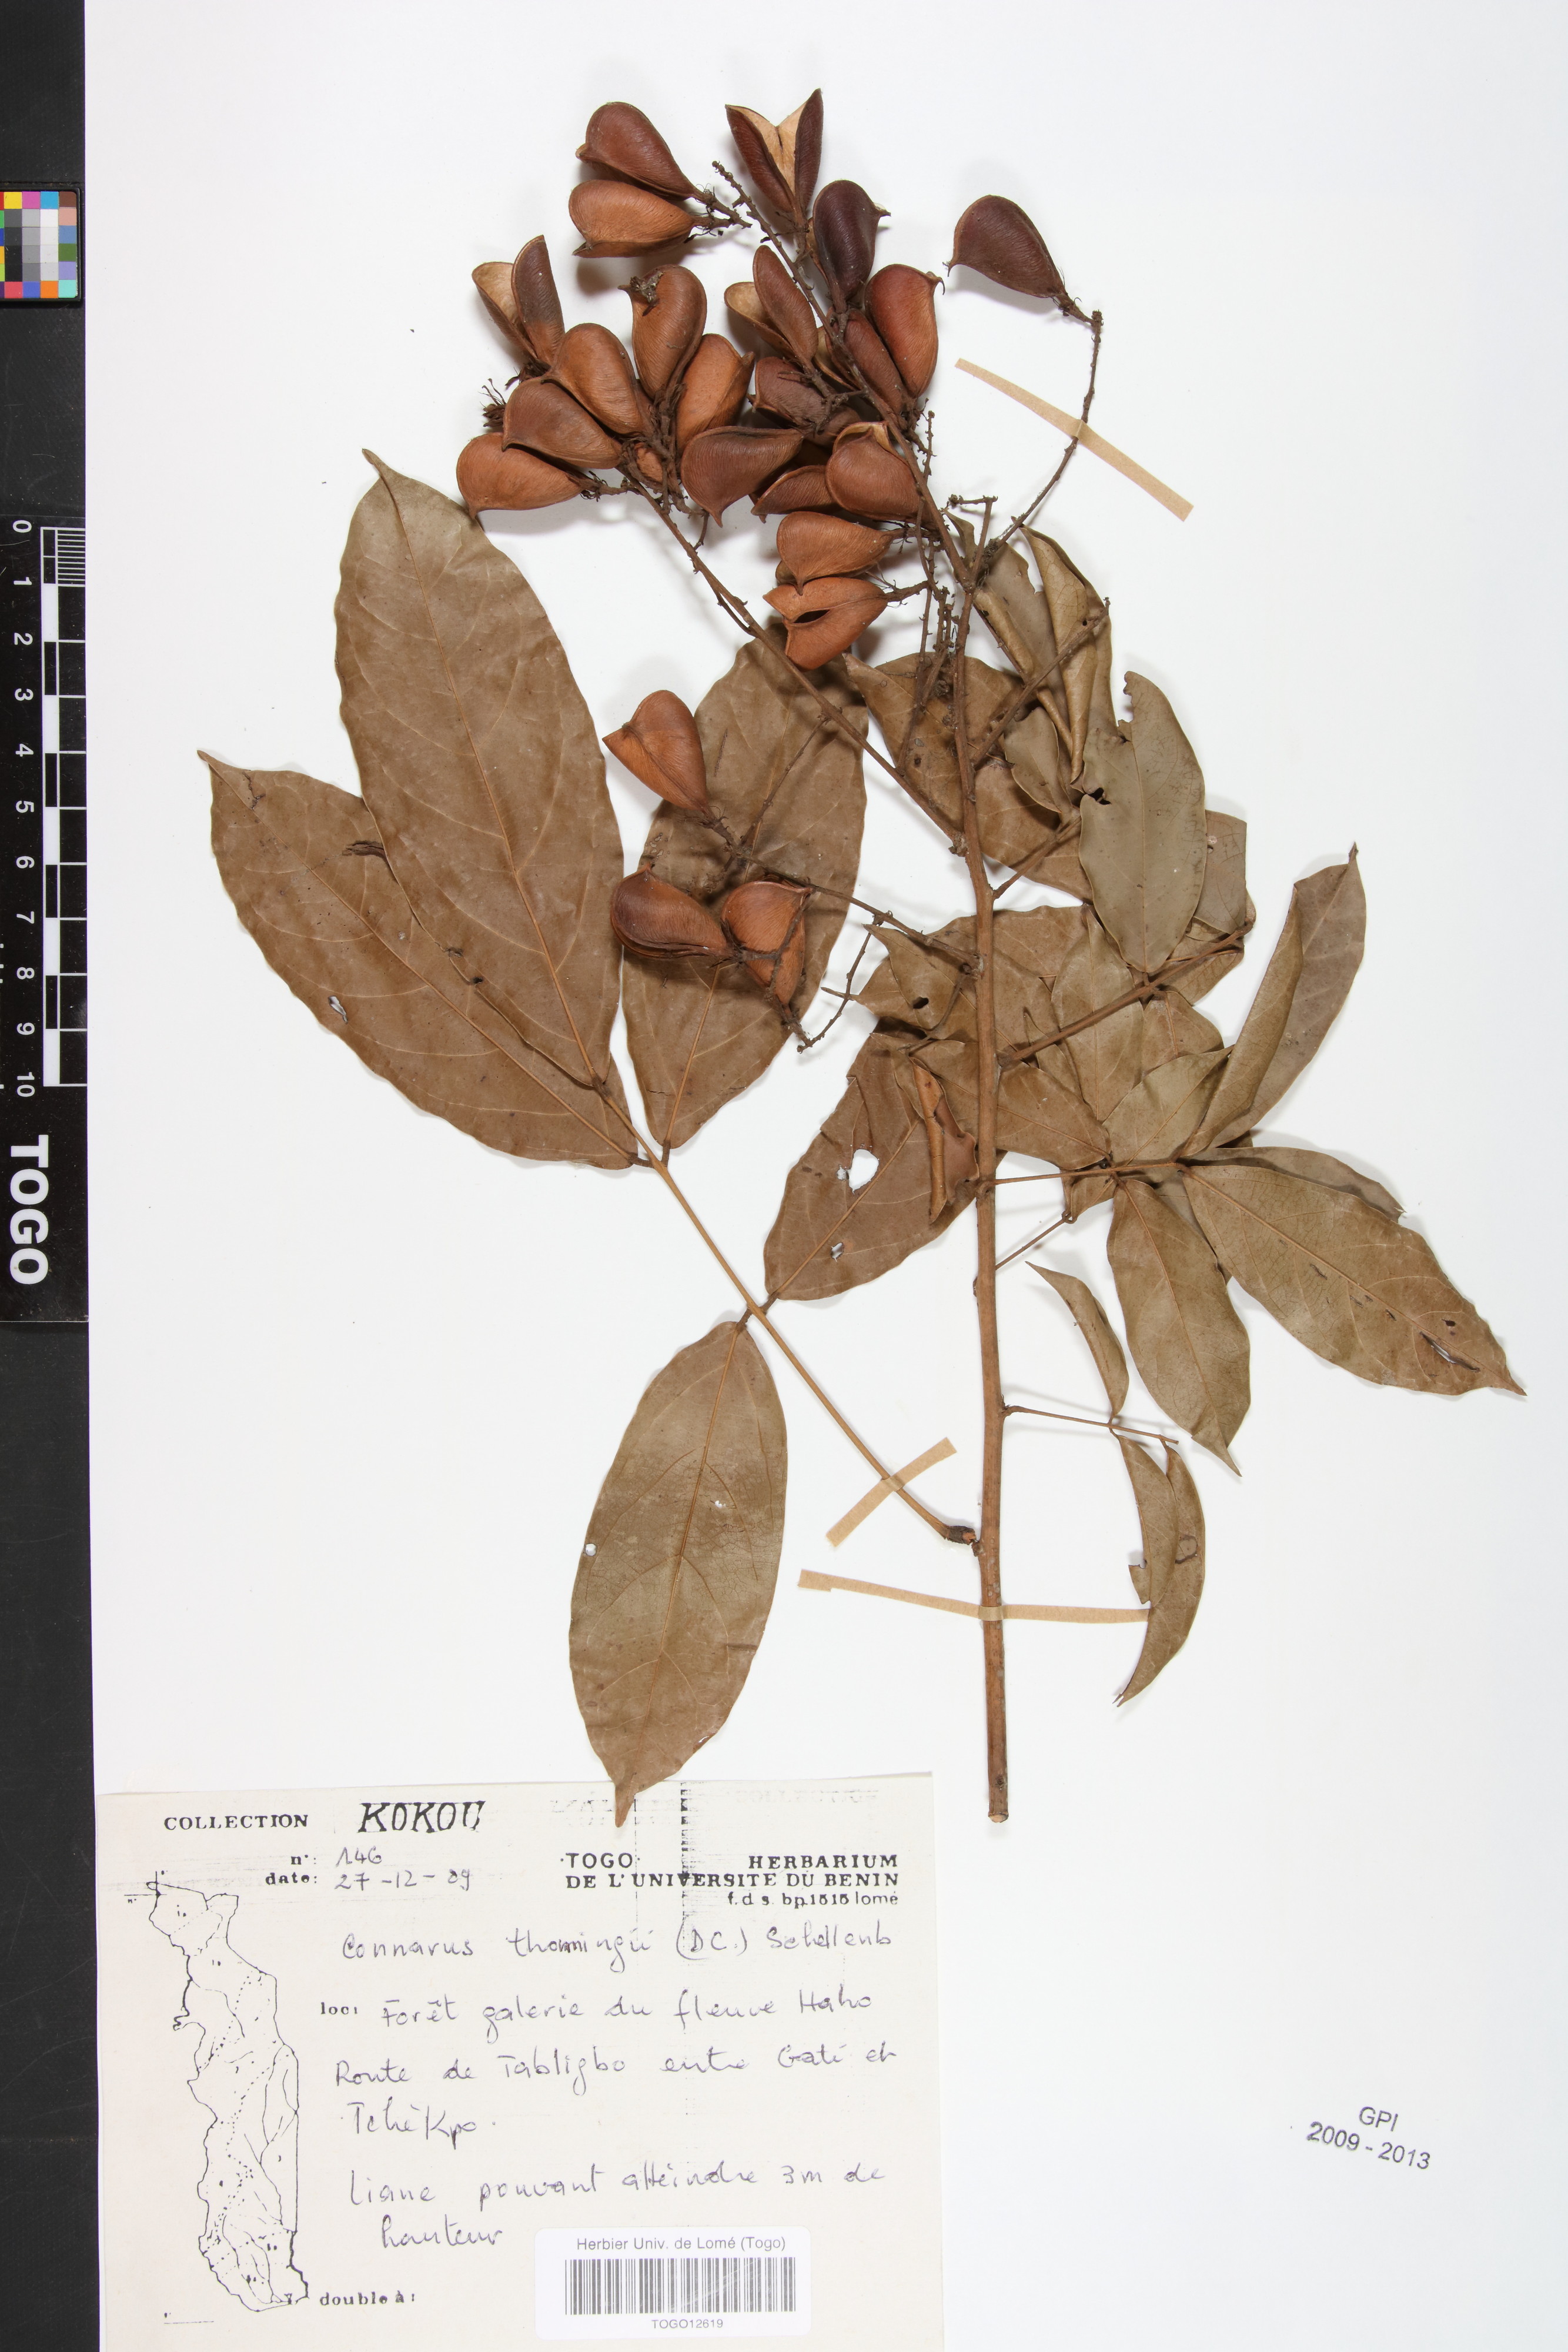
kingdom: Plantae
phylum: Tracheophyta
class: Magnoliopsida
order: Oxalidales
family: Connaraceae
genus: Connarus
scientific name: Connarus thonningii
